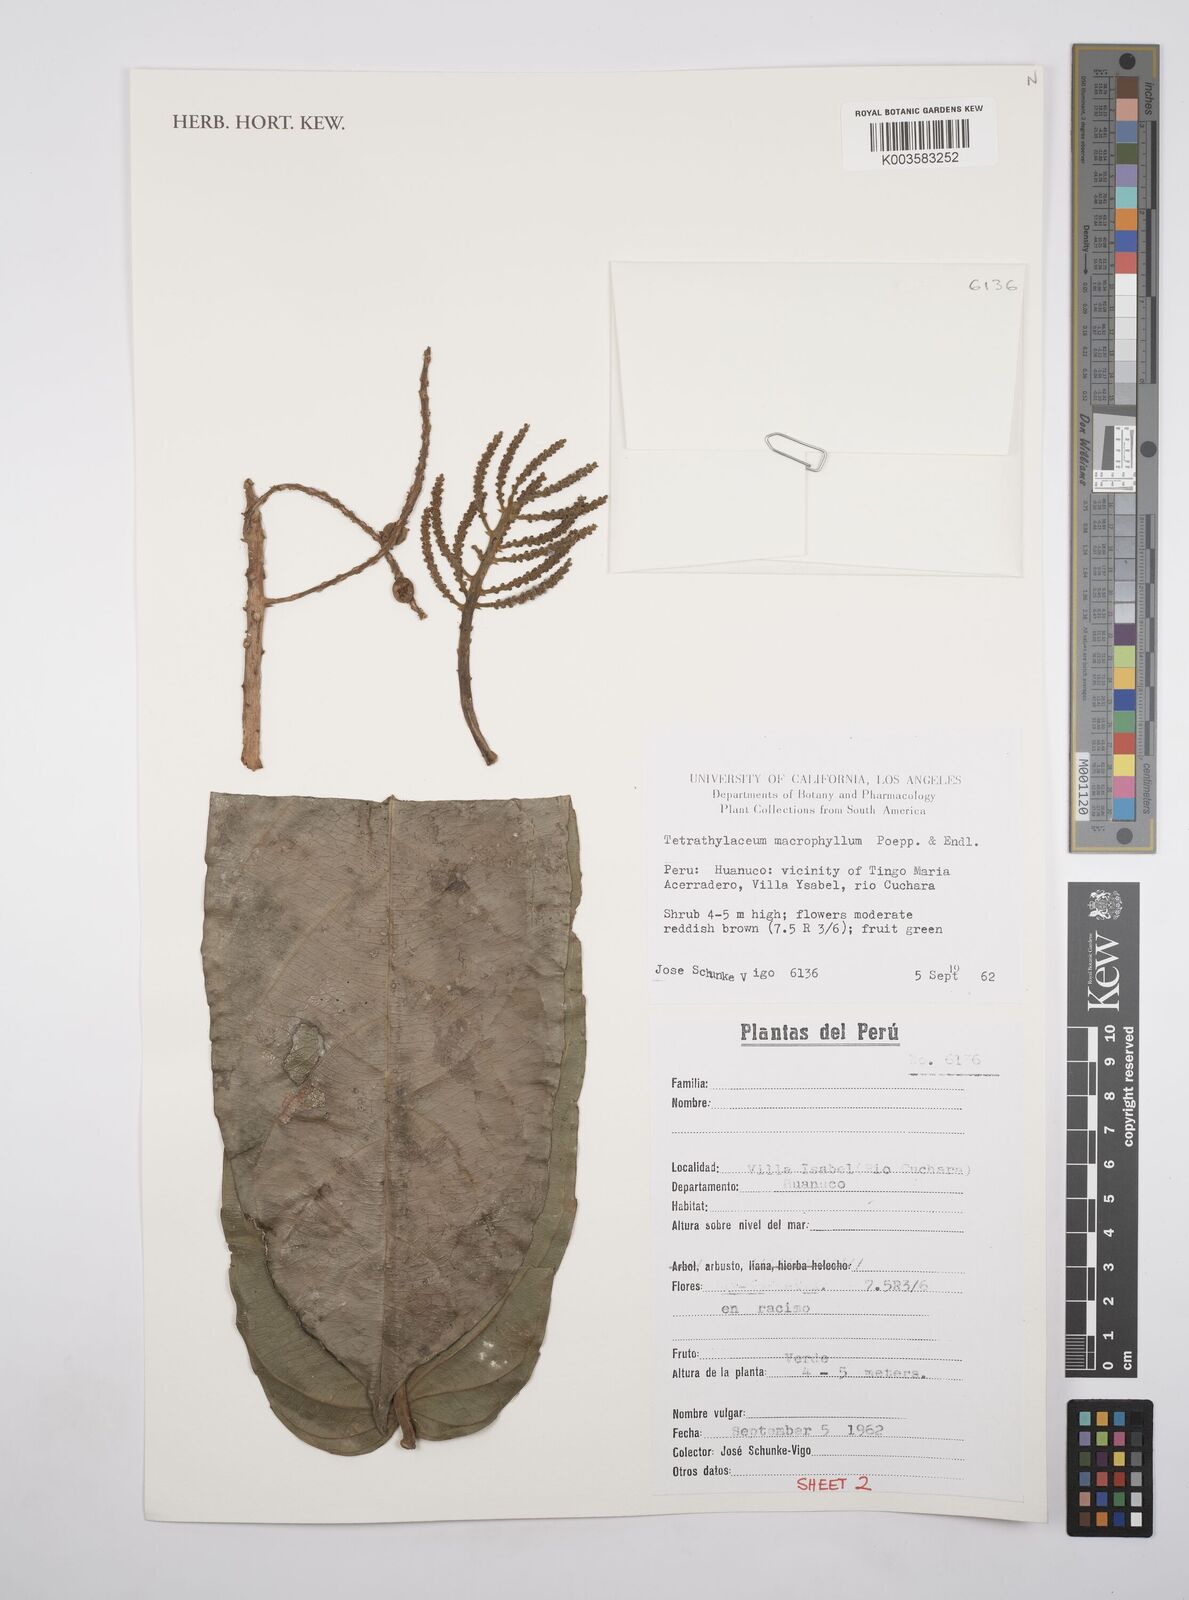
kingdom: Plantae
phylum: Tracheophyta
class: Magnoliopsida
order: Malpighiales
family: Salicaceae
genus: Tetrathylacium
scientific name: Tetrathylacium macrophyllum
